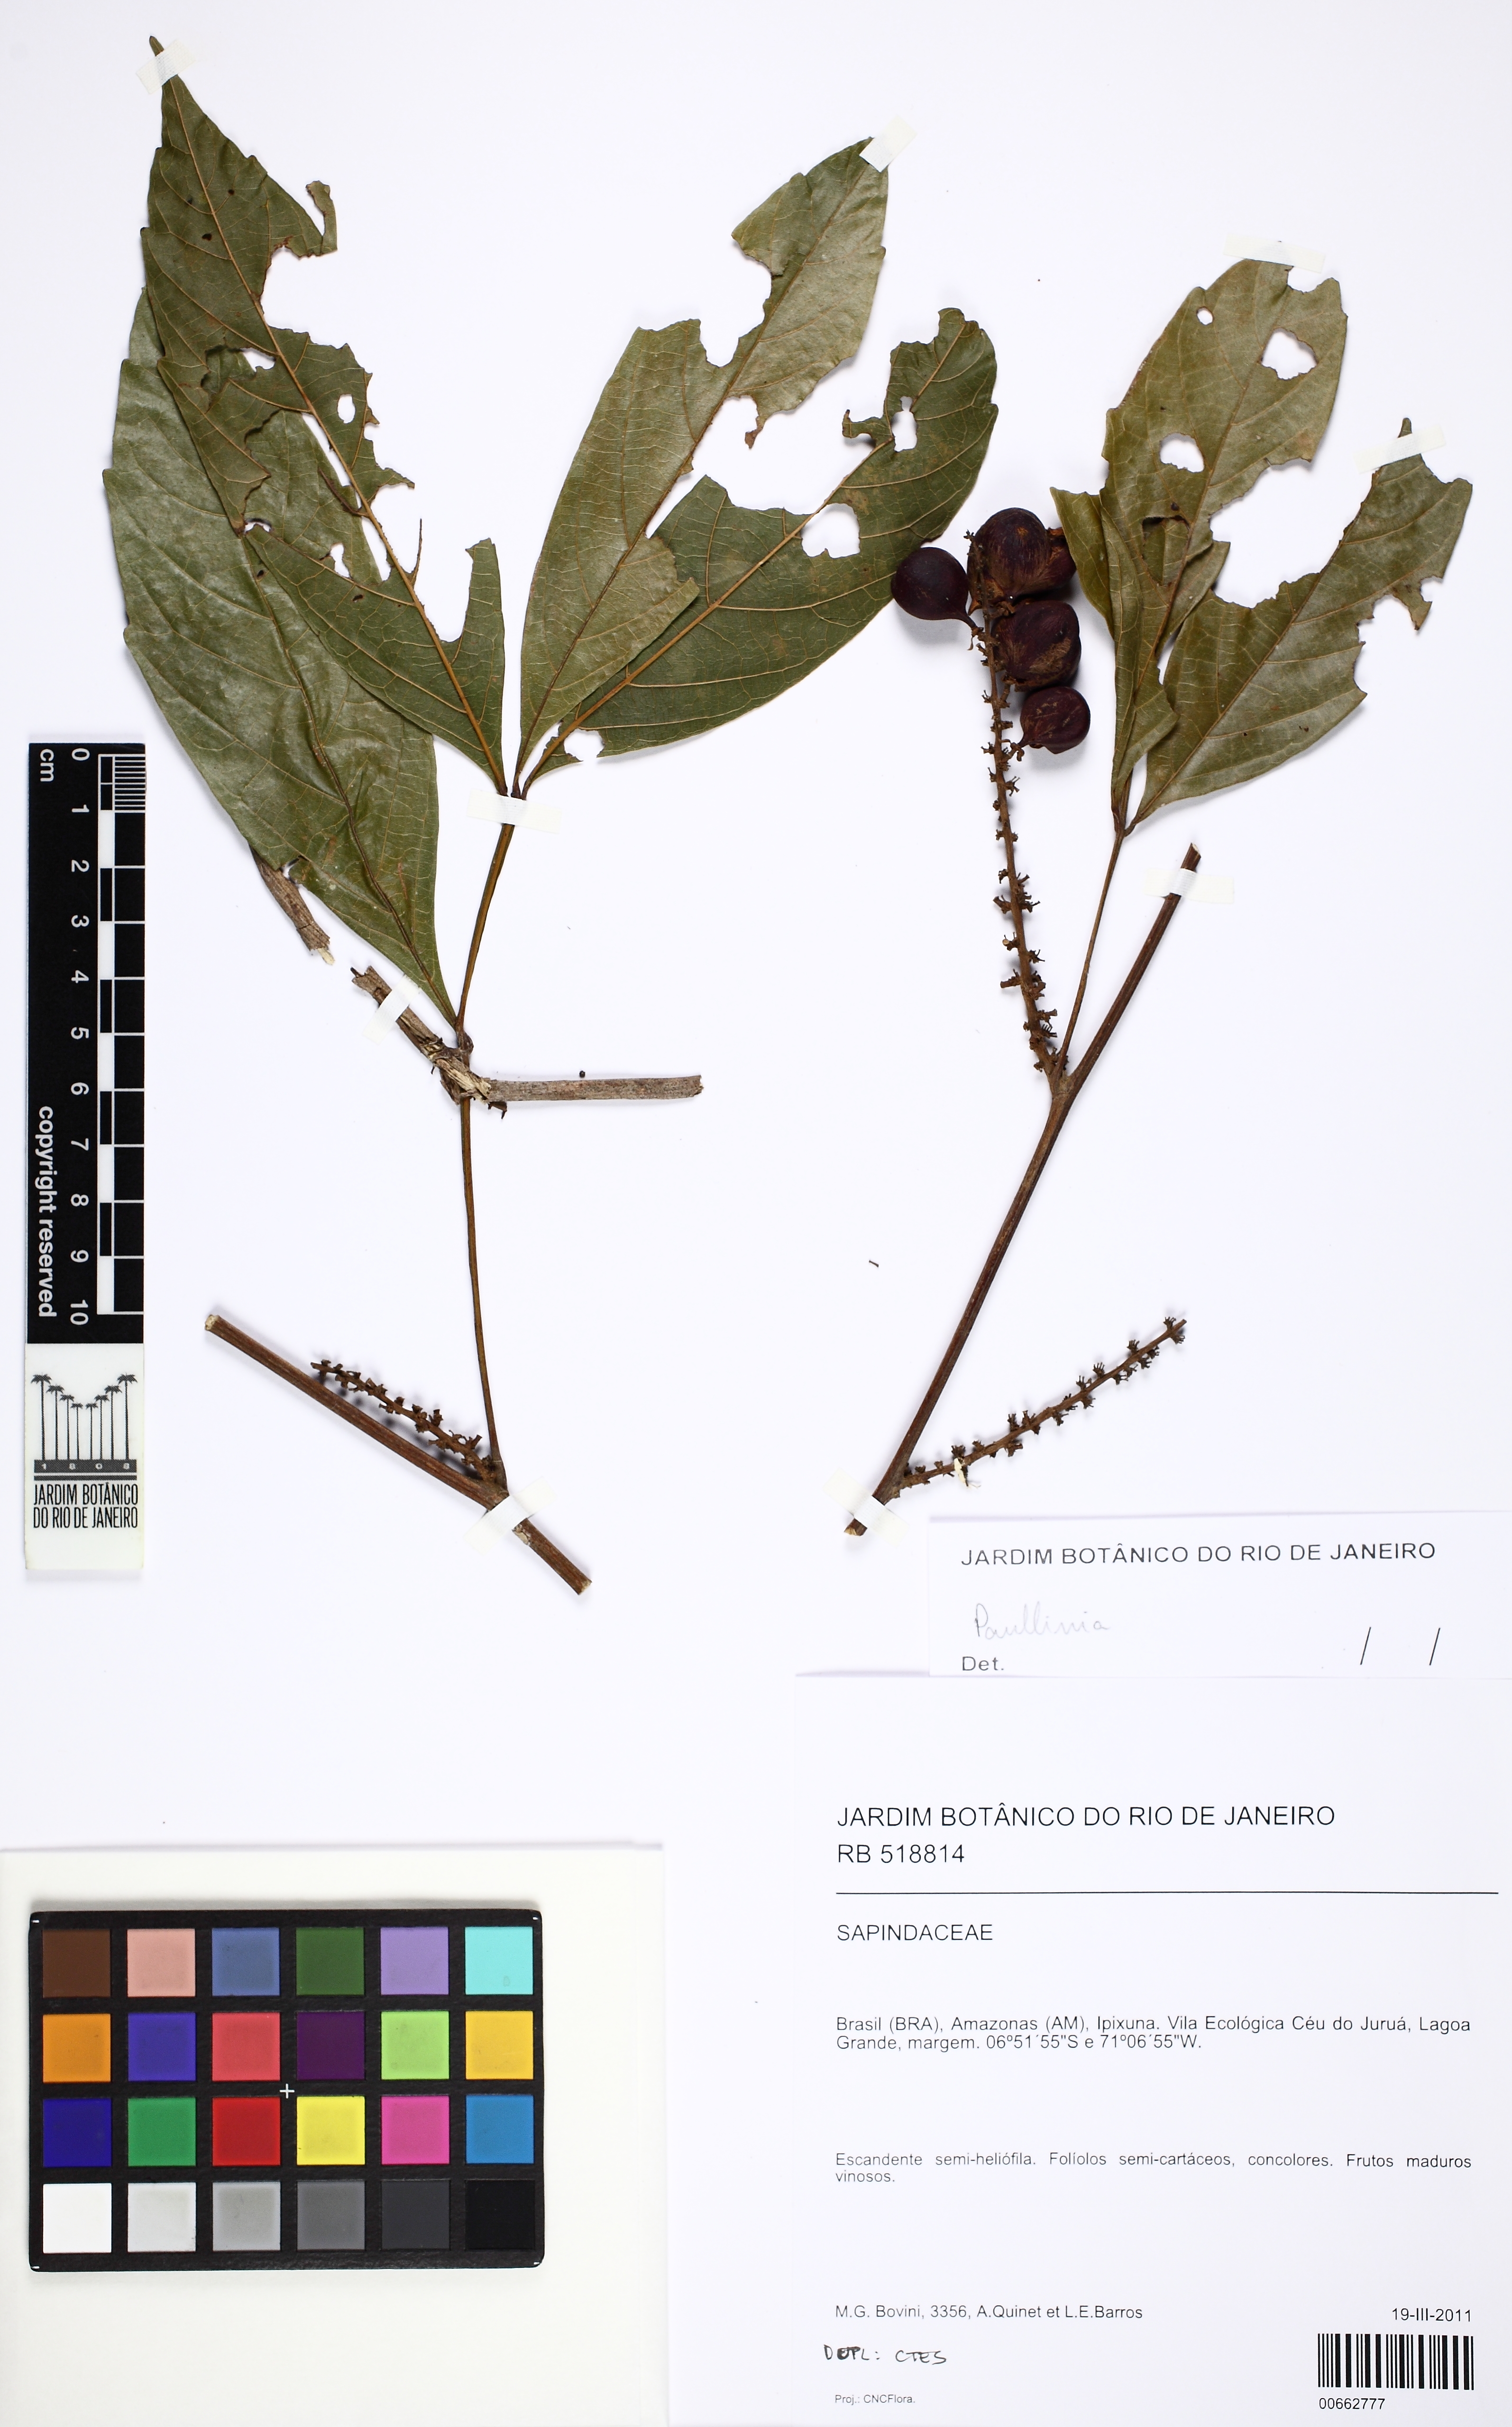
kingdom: Plantae
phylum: Tracheophyta
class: Magnoliopsida
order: Sapindales
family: Sapindaceae
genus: Paullinia
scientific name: Paullinia
